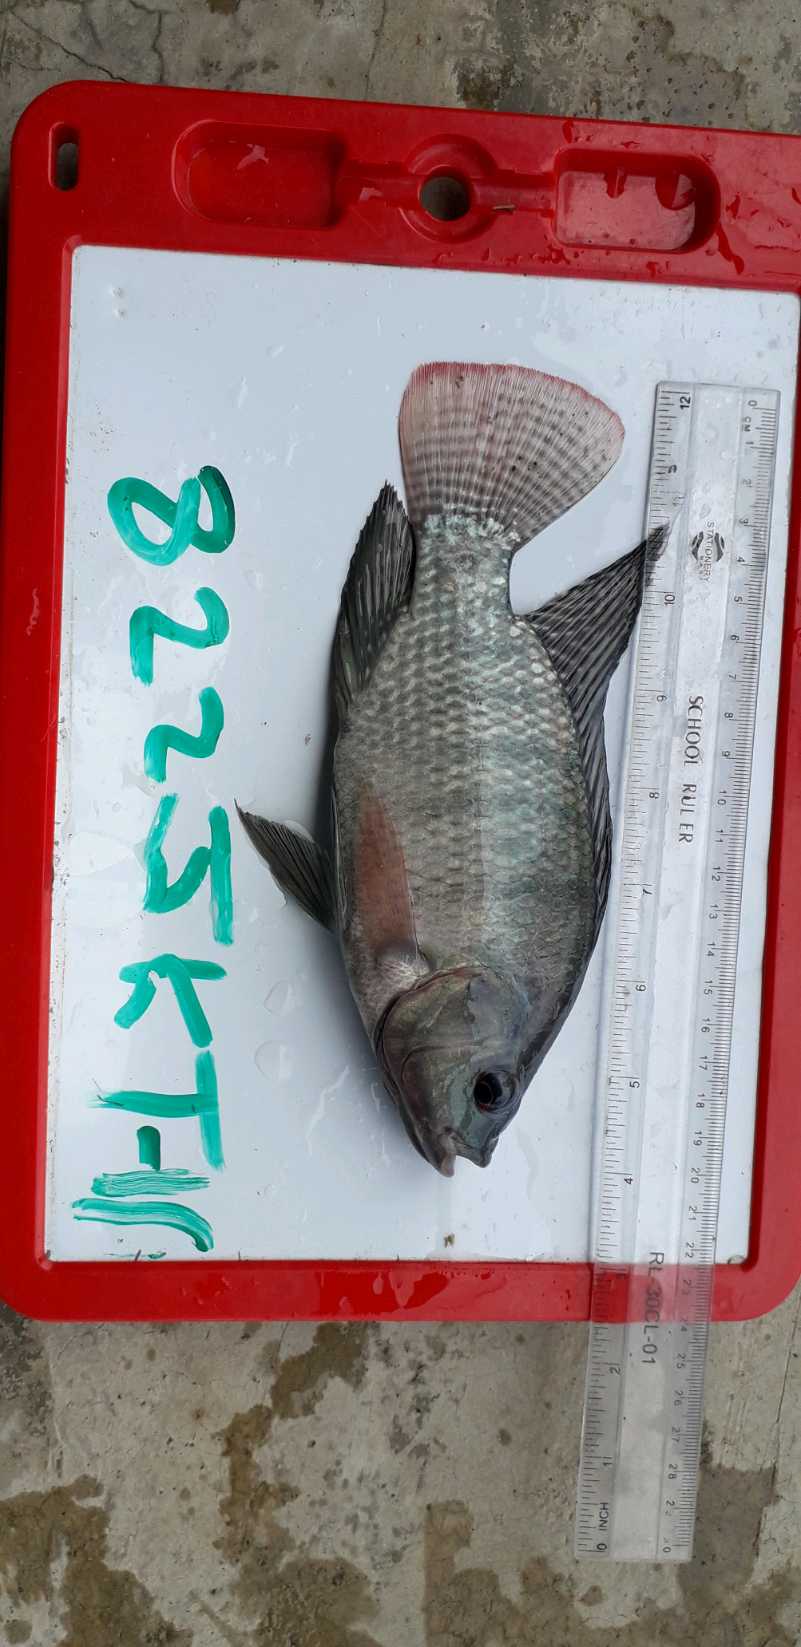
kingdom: Animalia
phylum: Chordata
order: Perciformes
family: Cichlidae
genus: Oreochromis
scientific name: Oreochromis niloticus
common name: Nile tilapia
